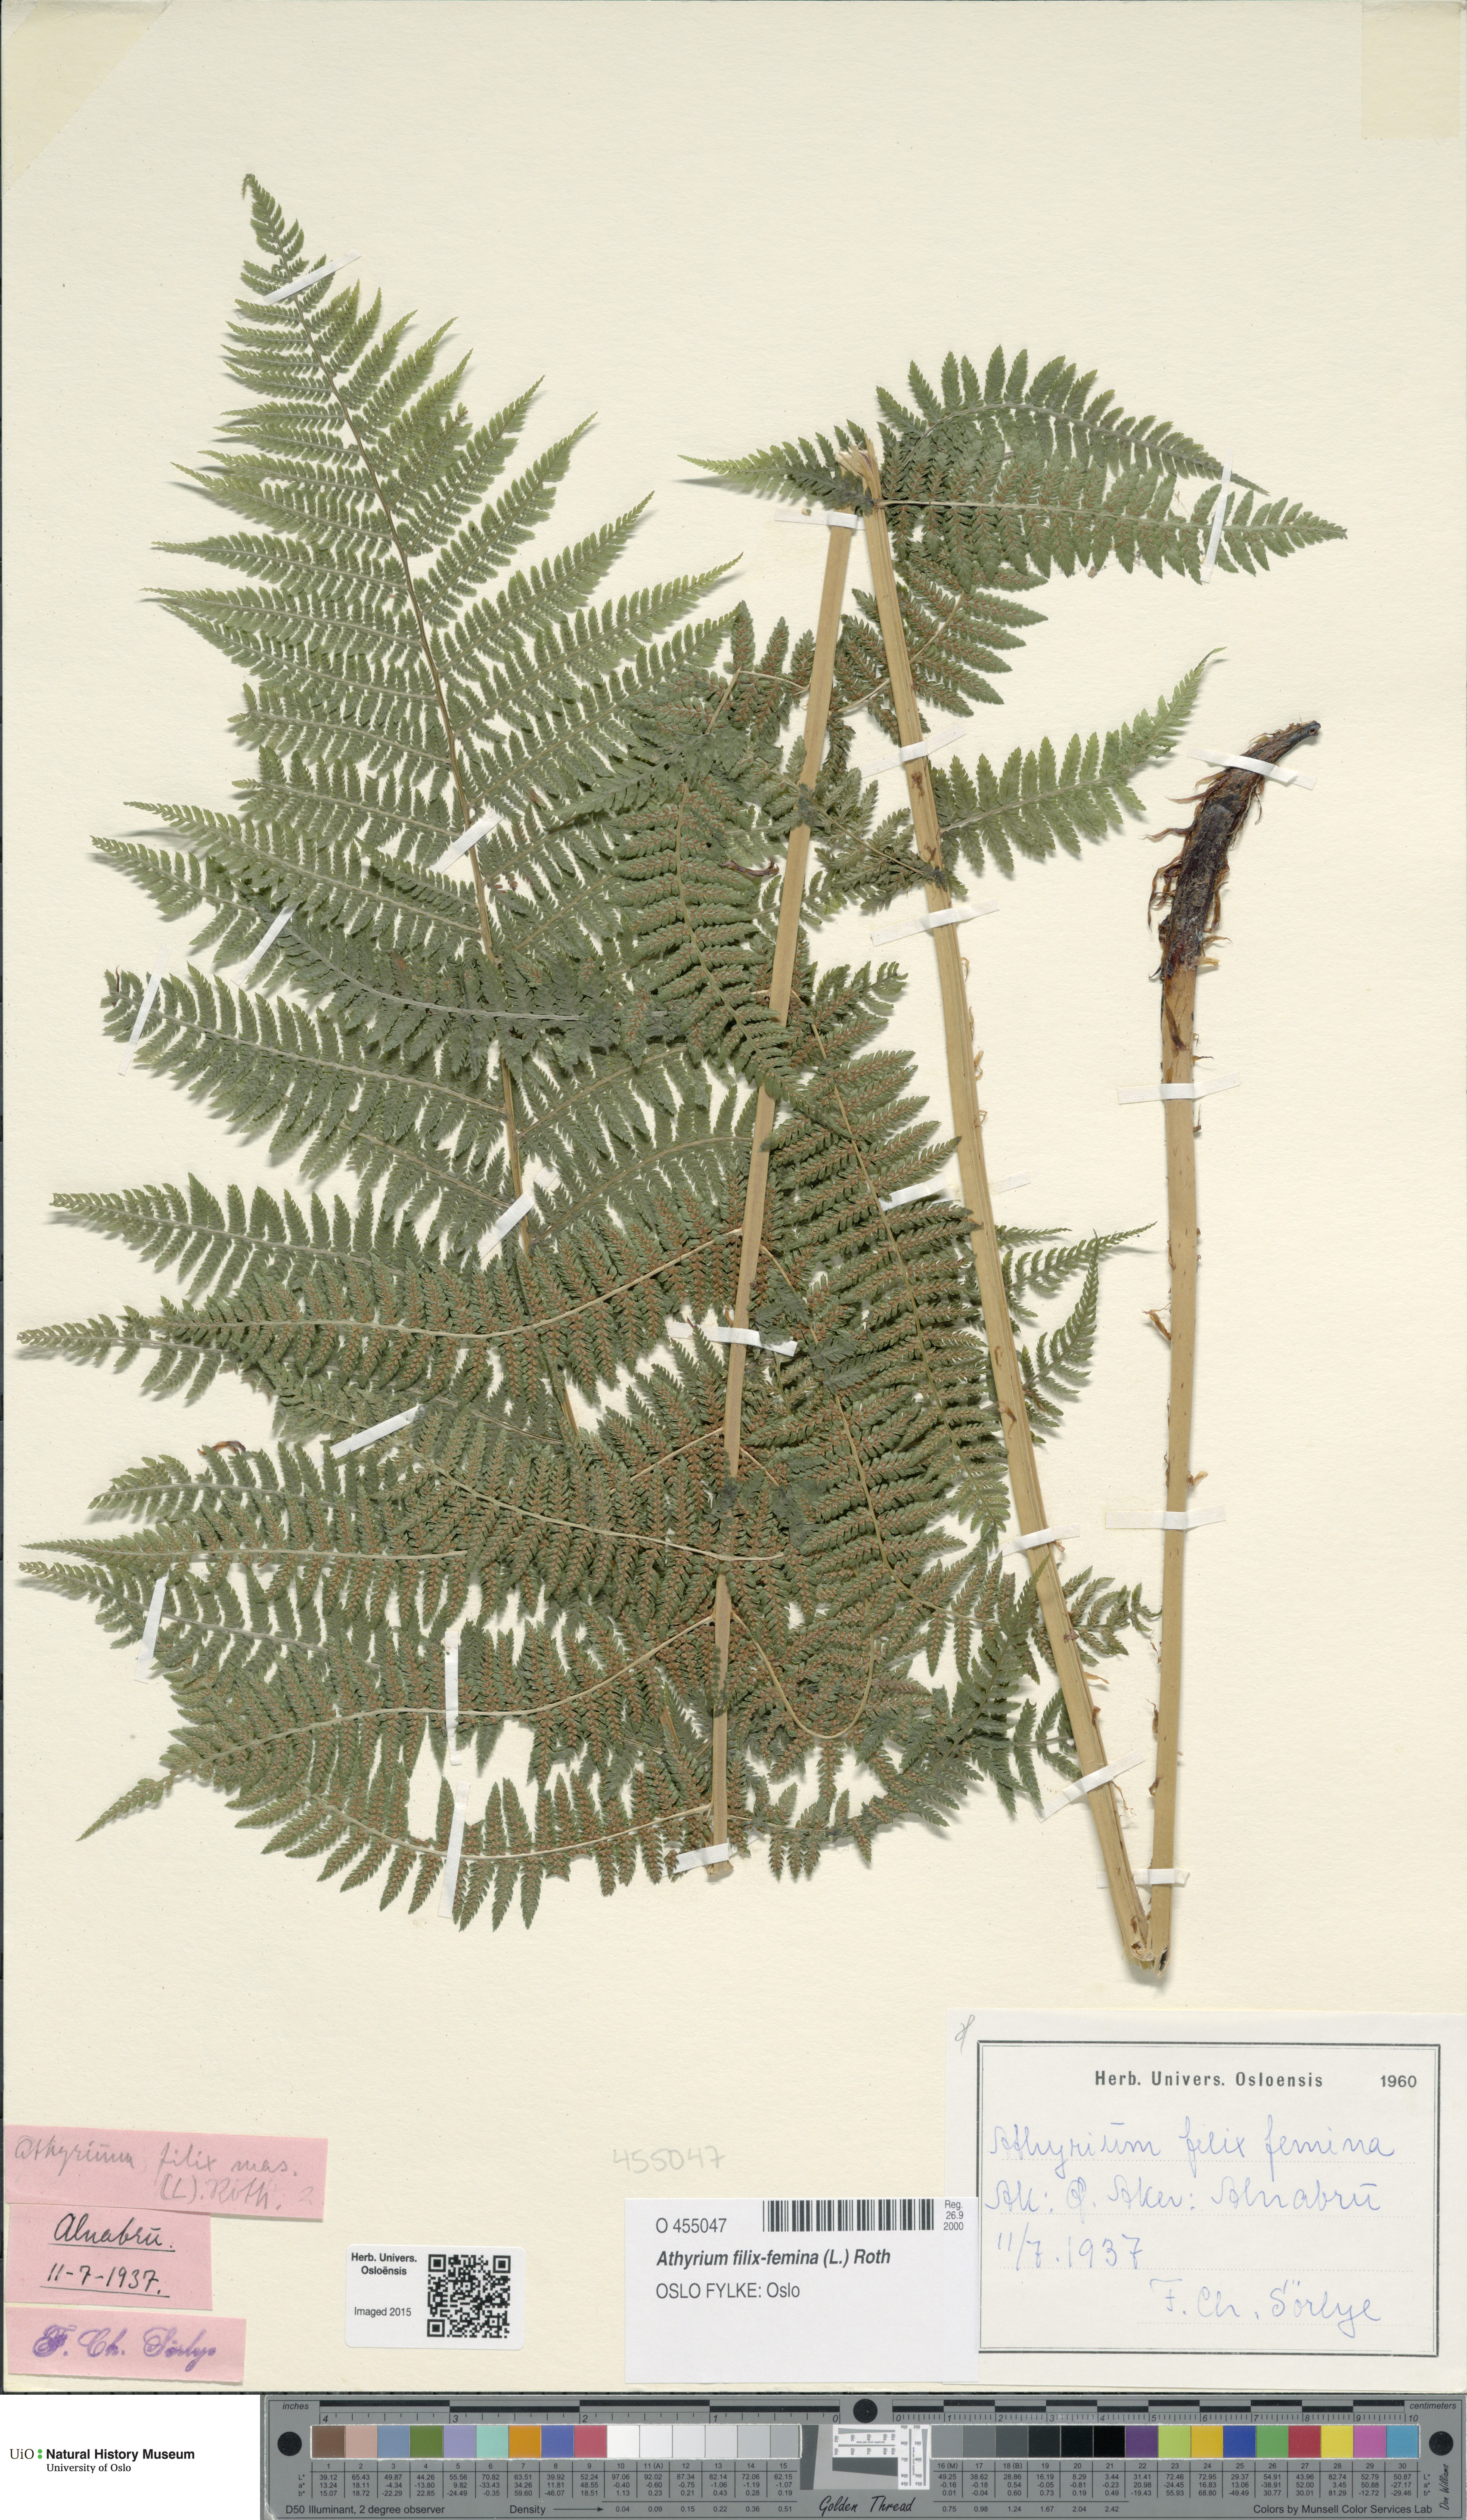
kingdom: Plantae
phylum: Tracheophyta
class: Polypodiopsida
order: Polypodiales
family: Athyriaceae
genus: Athyrium
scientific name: Athyrium filix-femina
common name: Lady fern
